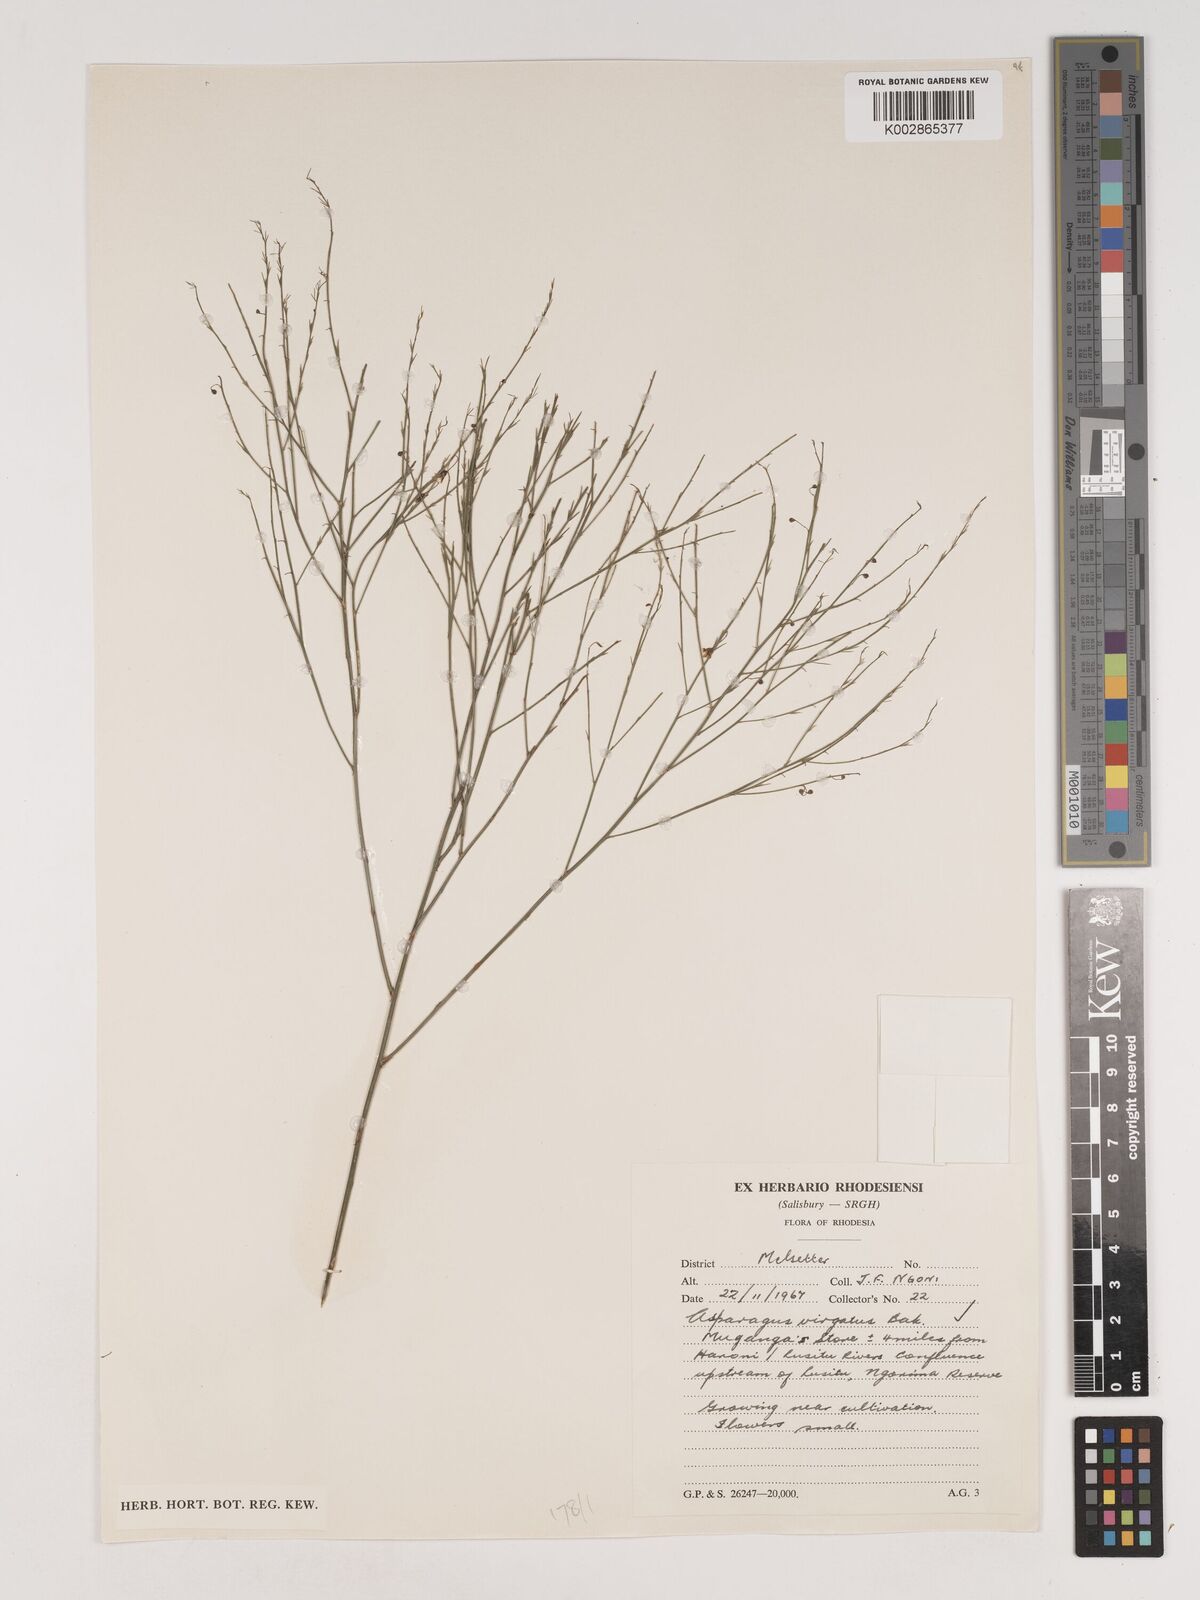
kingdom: Plantae
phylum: Tracheophyta
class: Liliopsida
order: Asparagales
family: Asparagaceae
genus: Asparagus
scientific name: Asparagus virgatus
